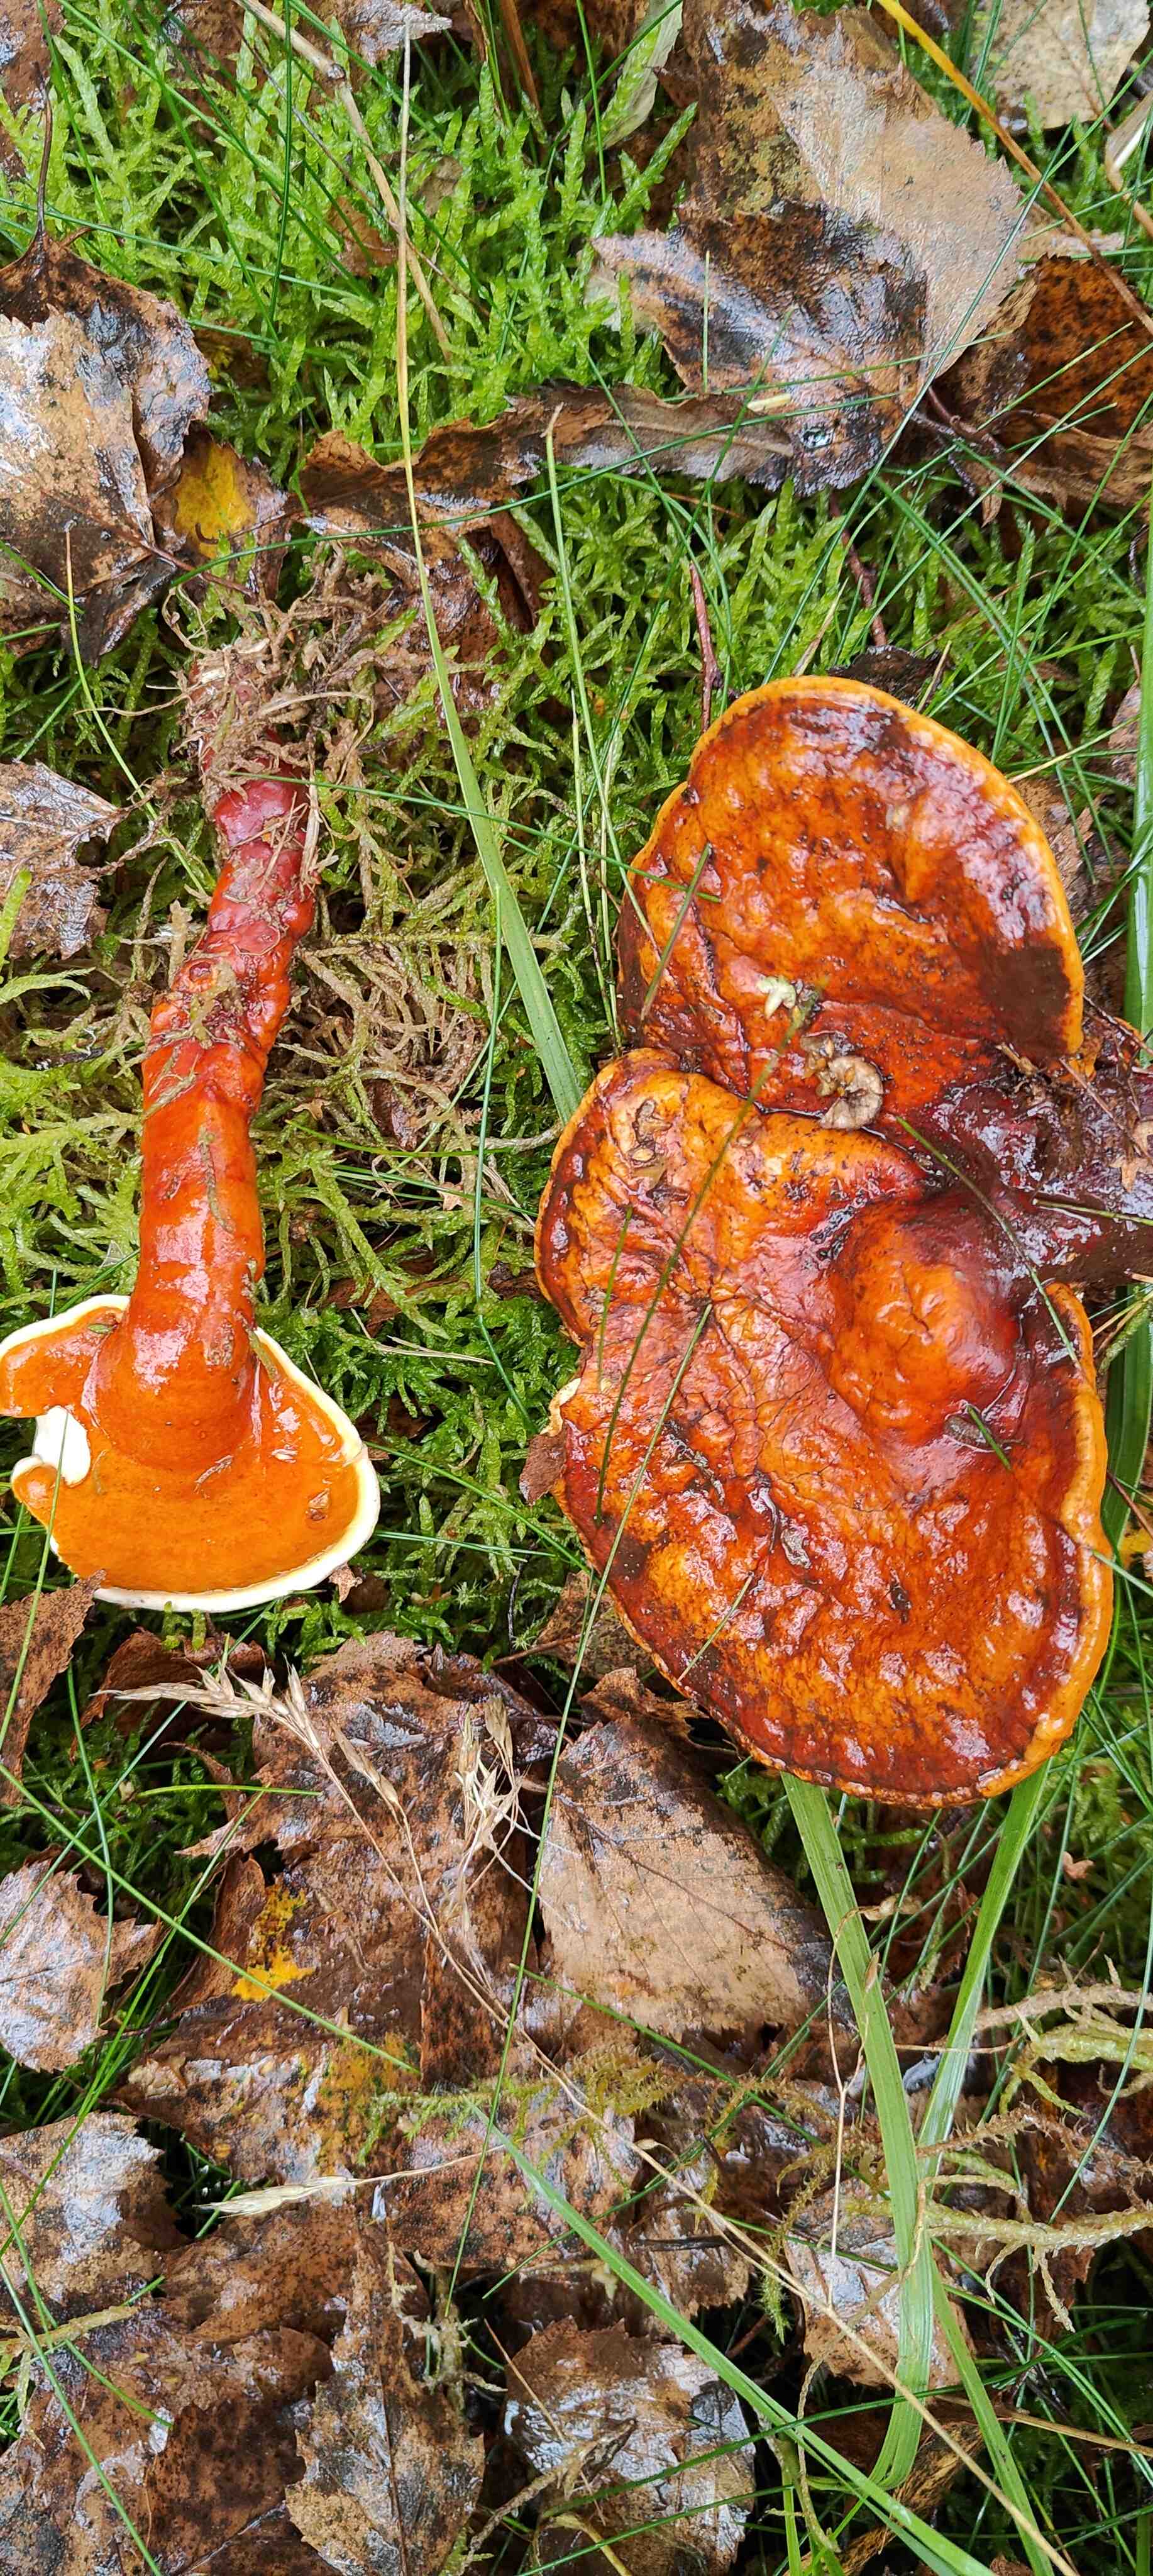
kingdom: Fungi
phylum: Basidiomycota
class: Agaricomycetes
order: Polyporales
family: Polyporaceae
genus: Ganoderma
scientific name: Ganoderma lucidum
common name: skinnende lakporesvamp
